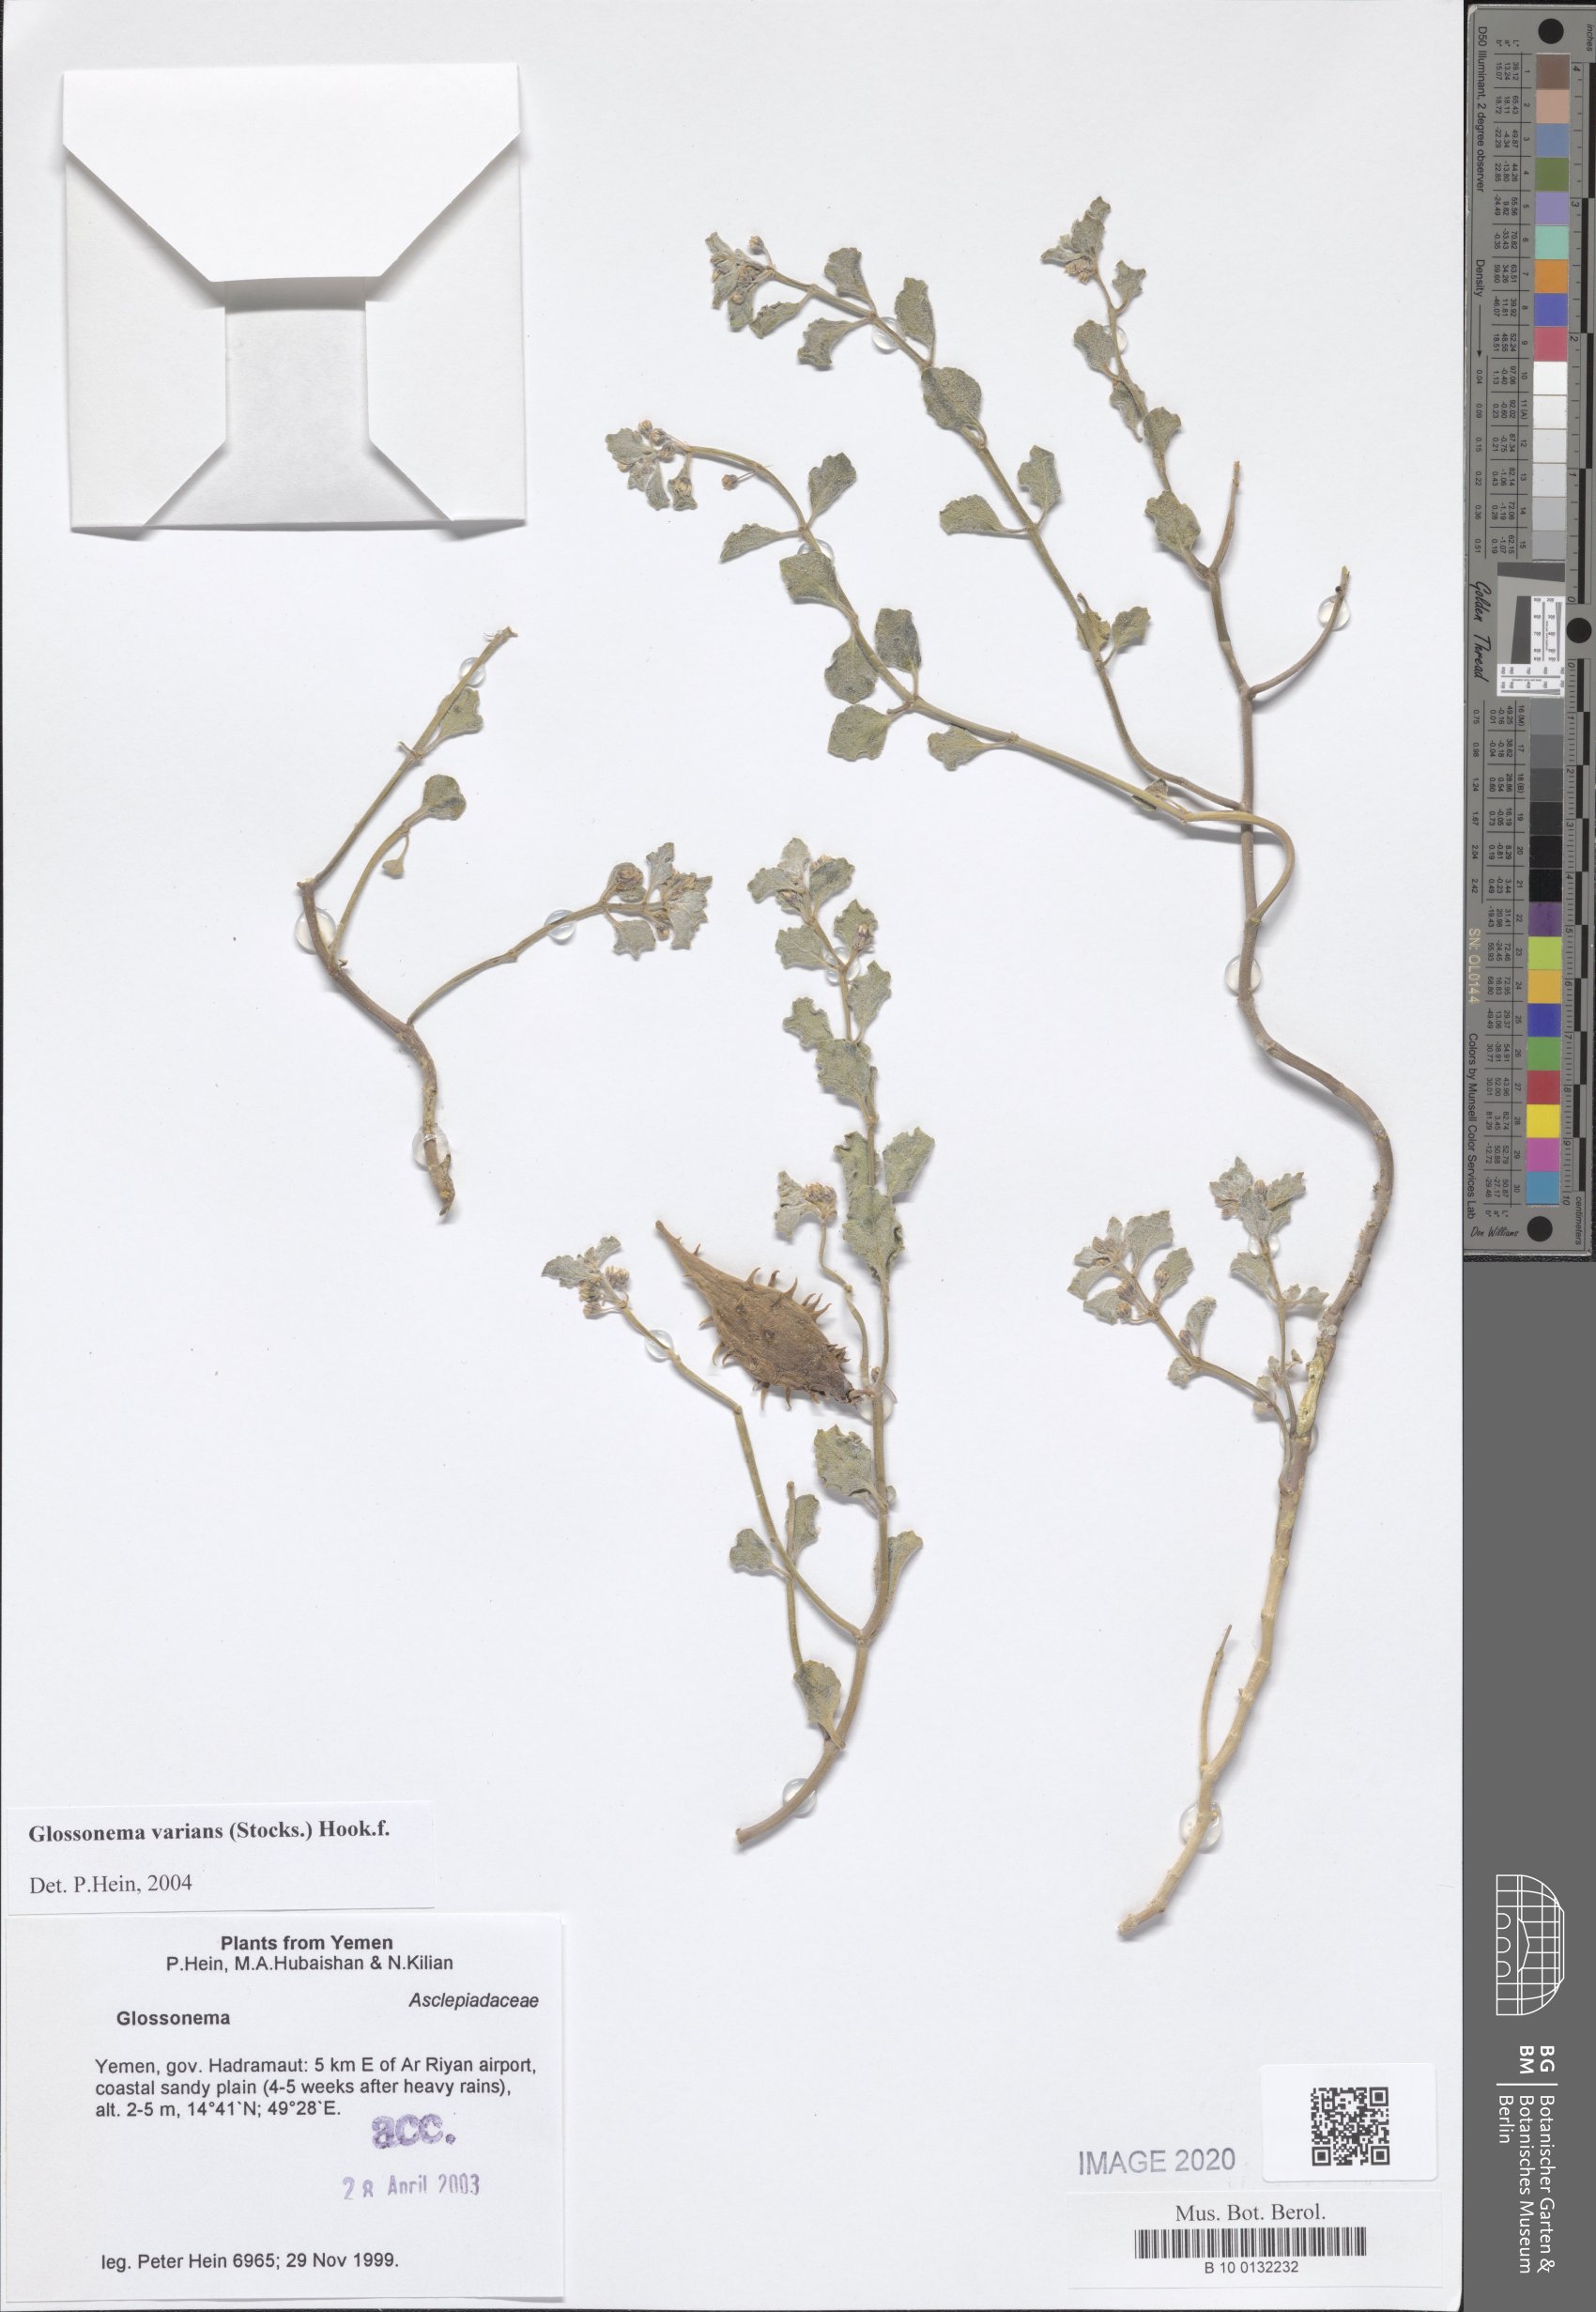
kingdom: Plantae
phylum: Tracheophyta
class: Magnoliopsida
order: Gentianales
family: Apocynaceae
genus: Cynanchum
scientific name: Cynanchum varians
